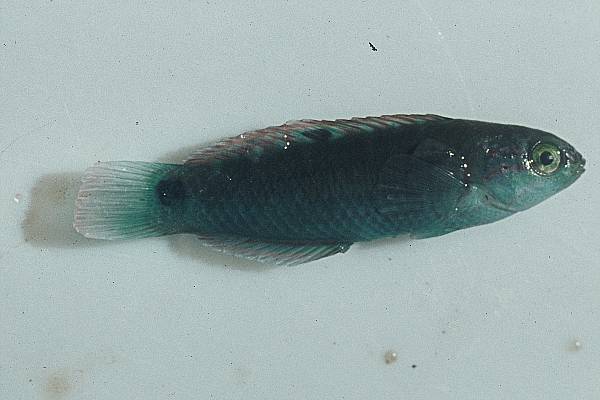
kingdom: Animalia
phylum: Chordata
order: Perciformes
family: Labridae
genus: Thalassoma
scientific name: Thalassoma lunare
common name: Blue wrasse
